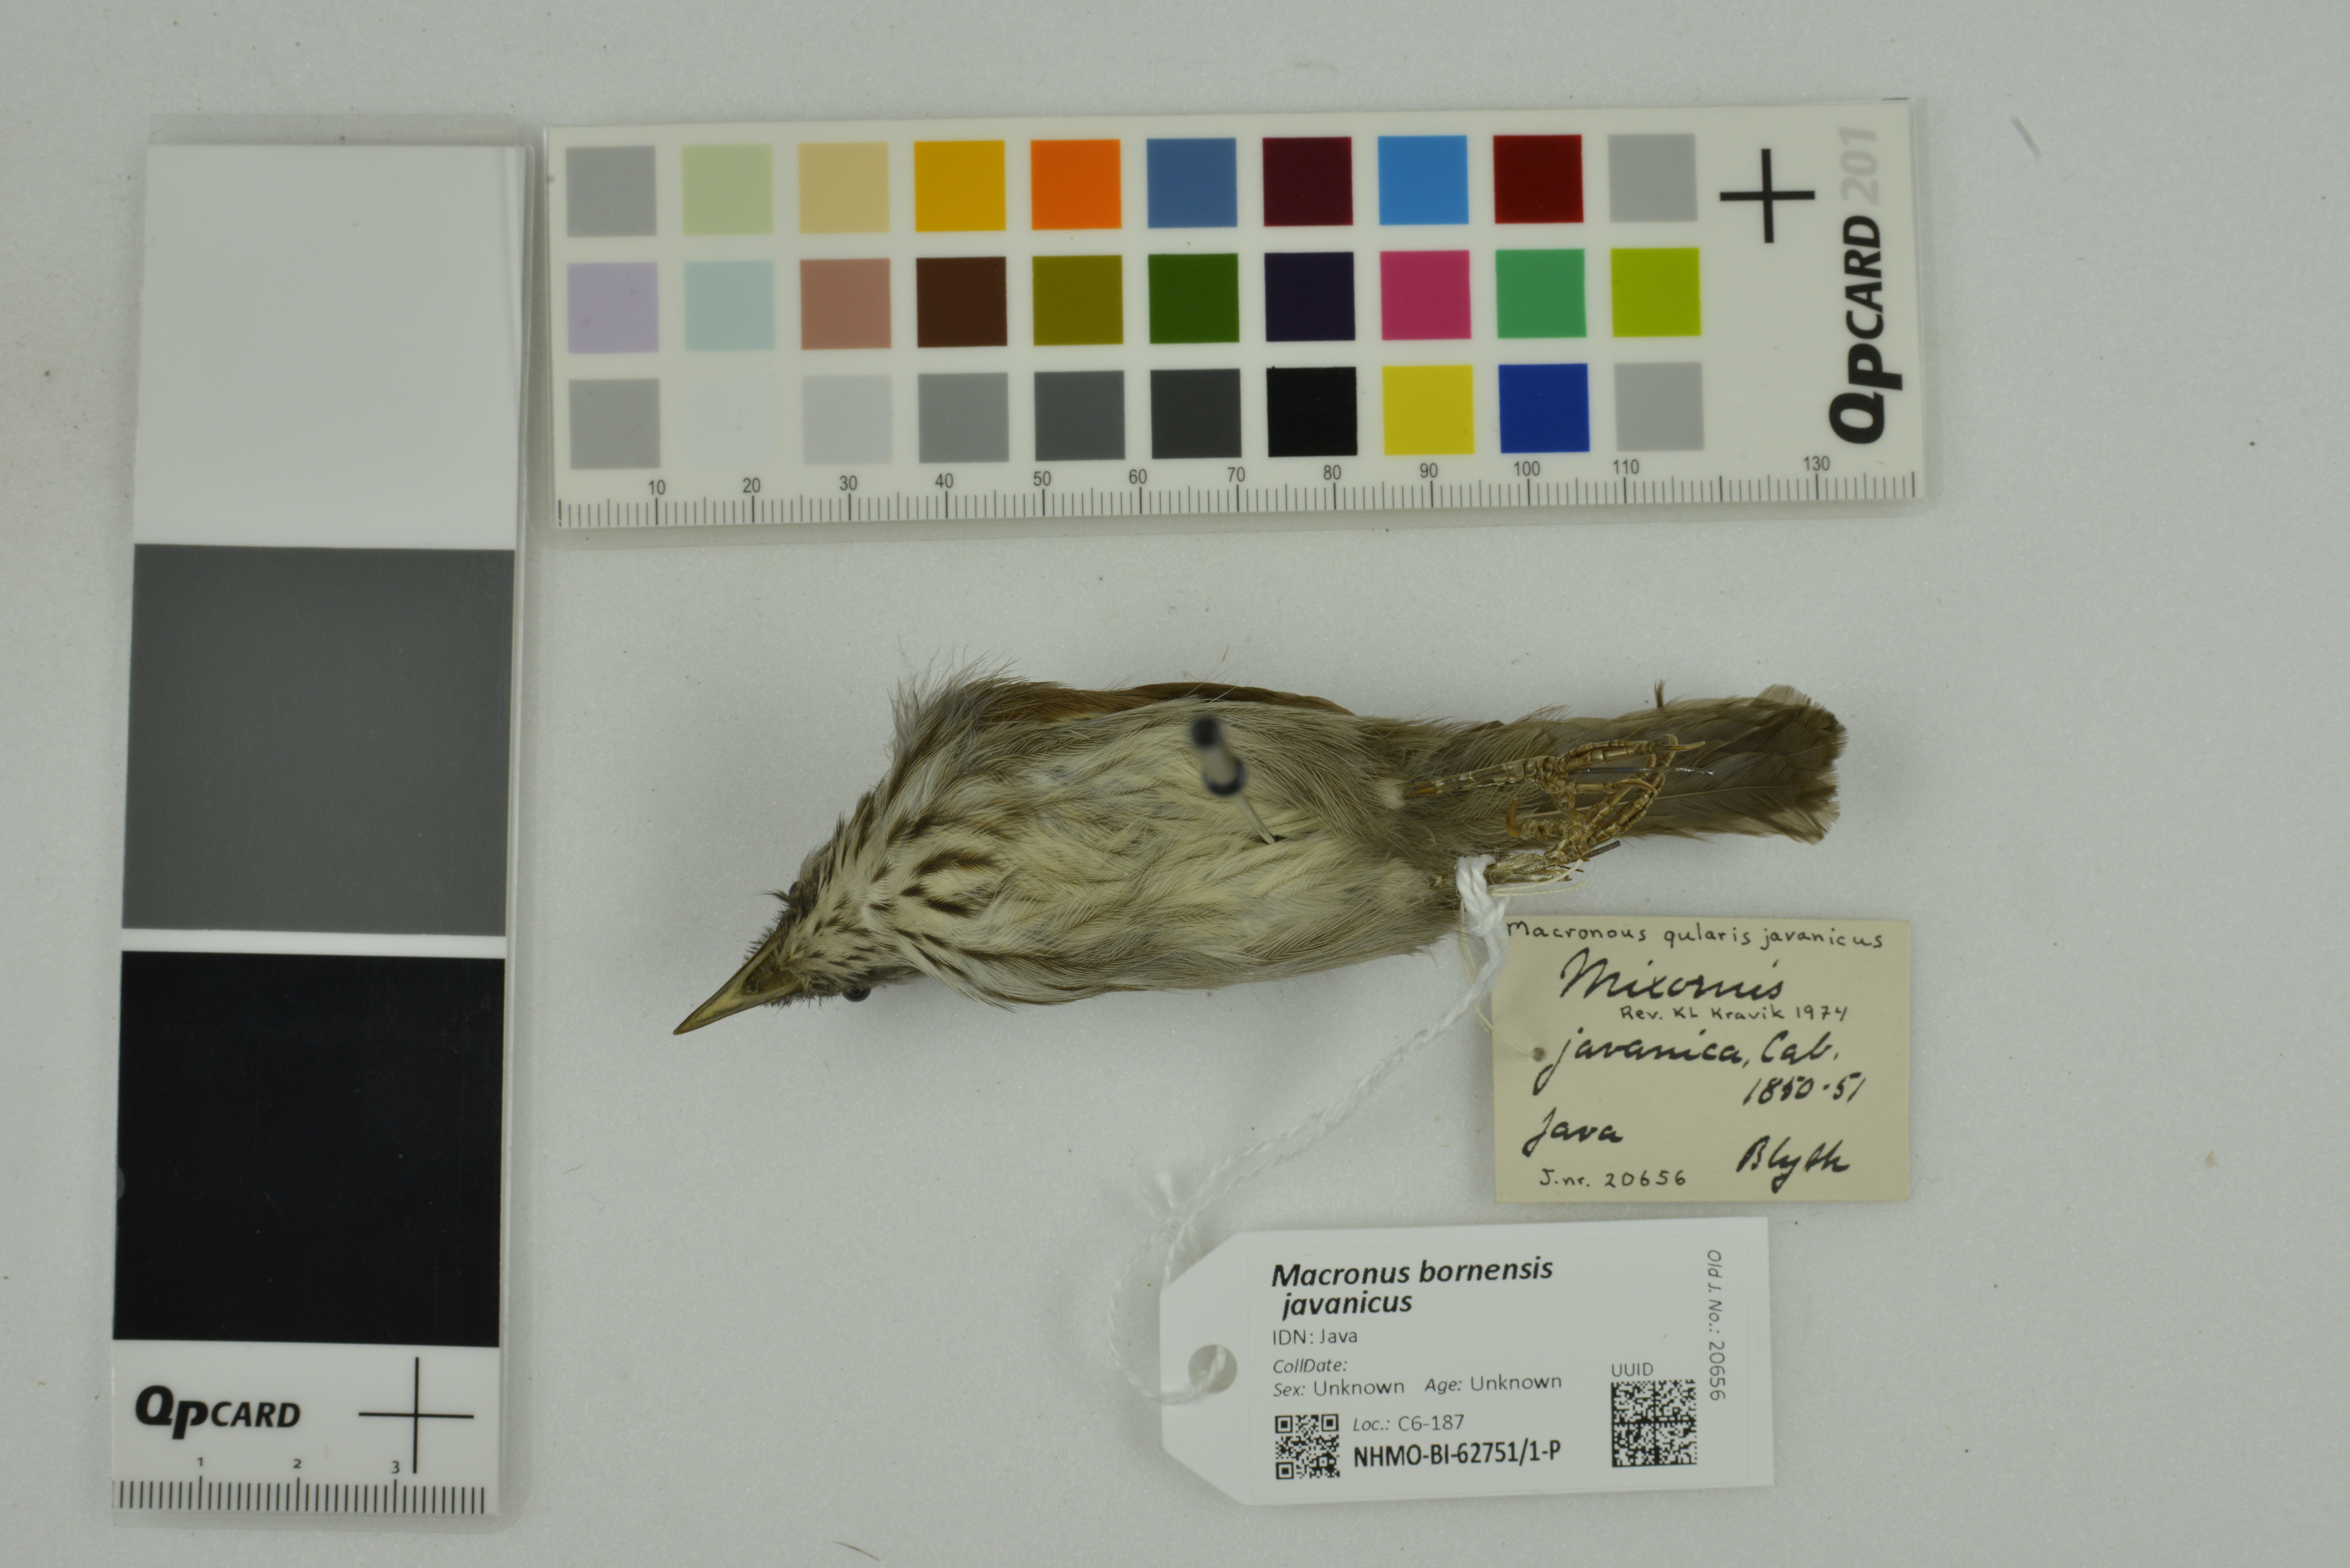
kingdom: Animalia
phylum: Chordata
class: Aves
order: Passeriformes
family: Timaliidae
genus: Macronus
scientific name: Macronus bornensis
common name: Bold-striped tit-babbler
